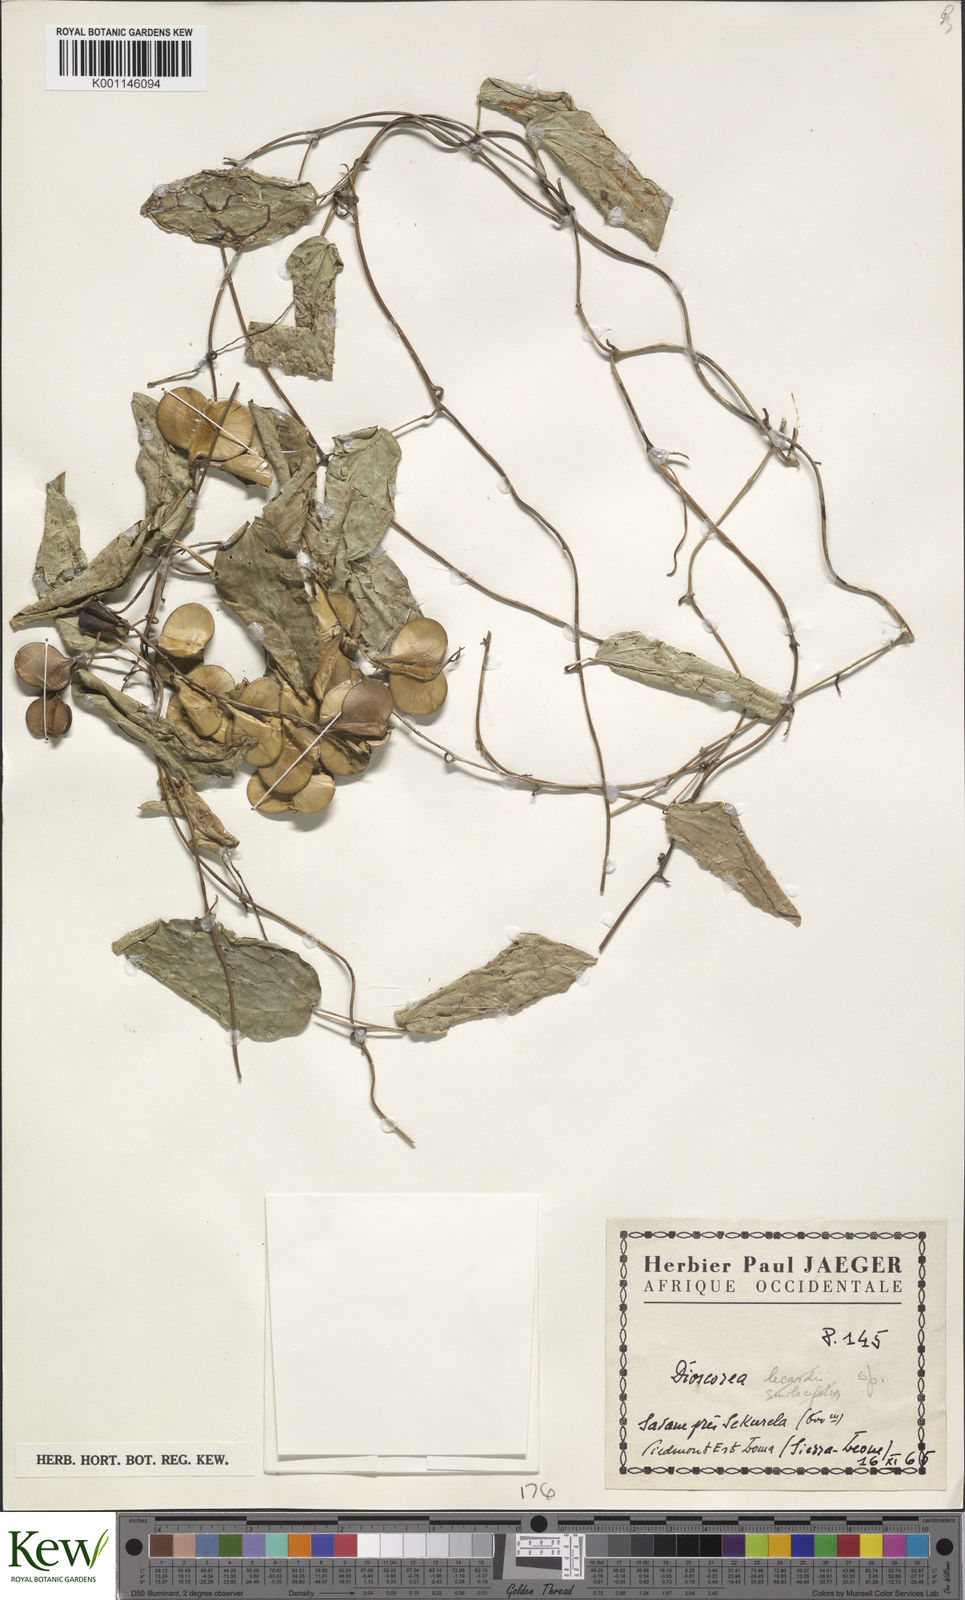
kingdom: Plantae
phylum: Tracheophyta
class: Liliopsida
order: Dioscoreales
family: Dioscoreaceae
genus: Dioscorea
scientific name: Dioscorea
